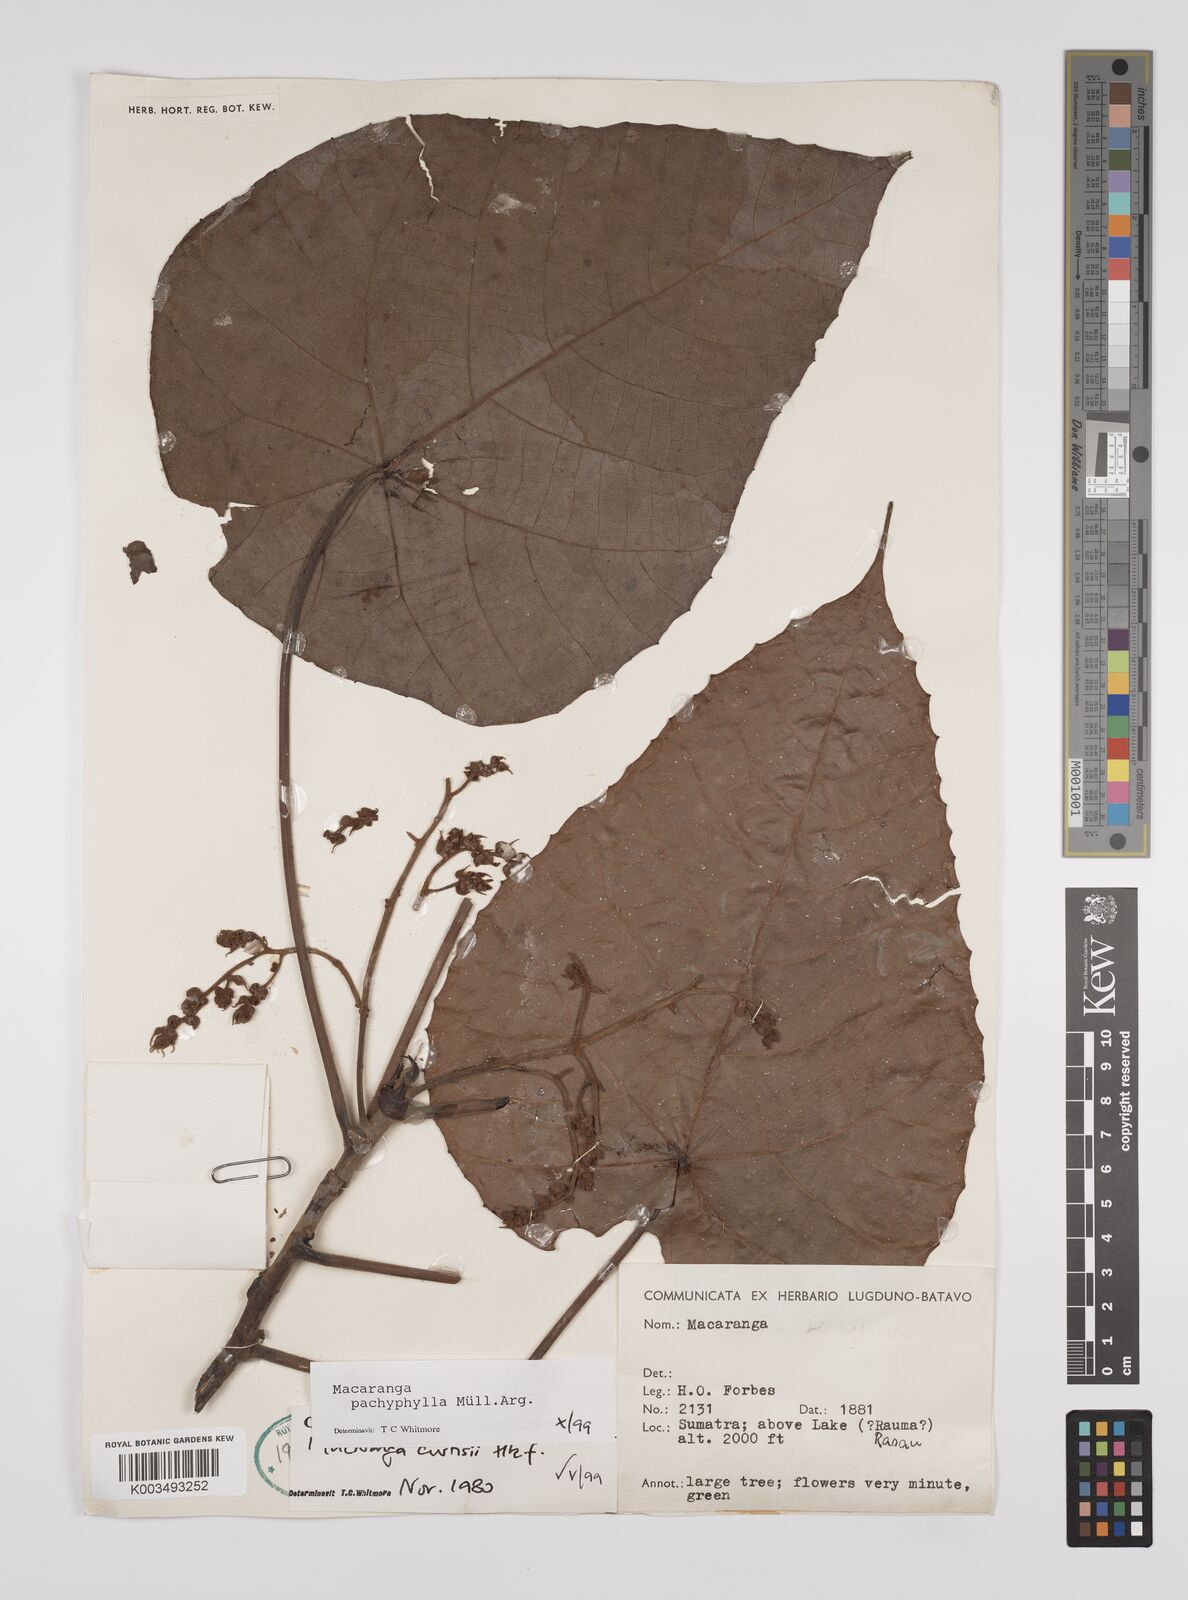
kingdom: Plantae
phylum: Tracheophyta
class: Magnoliopsida
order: Malpighiales
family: Euphorbiaceae
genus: Macaranga
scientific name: Macaranga pachyphylla
